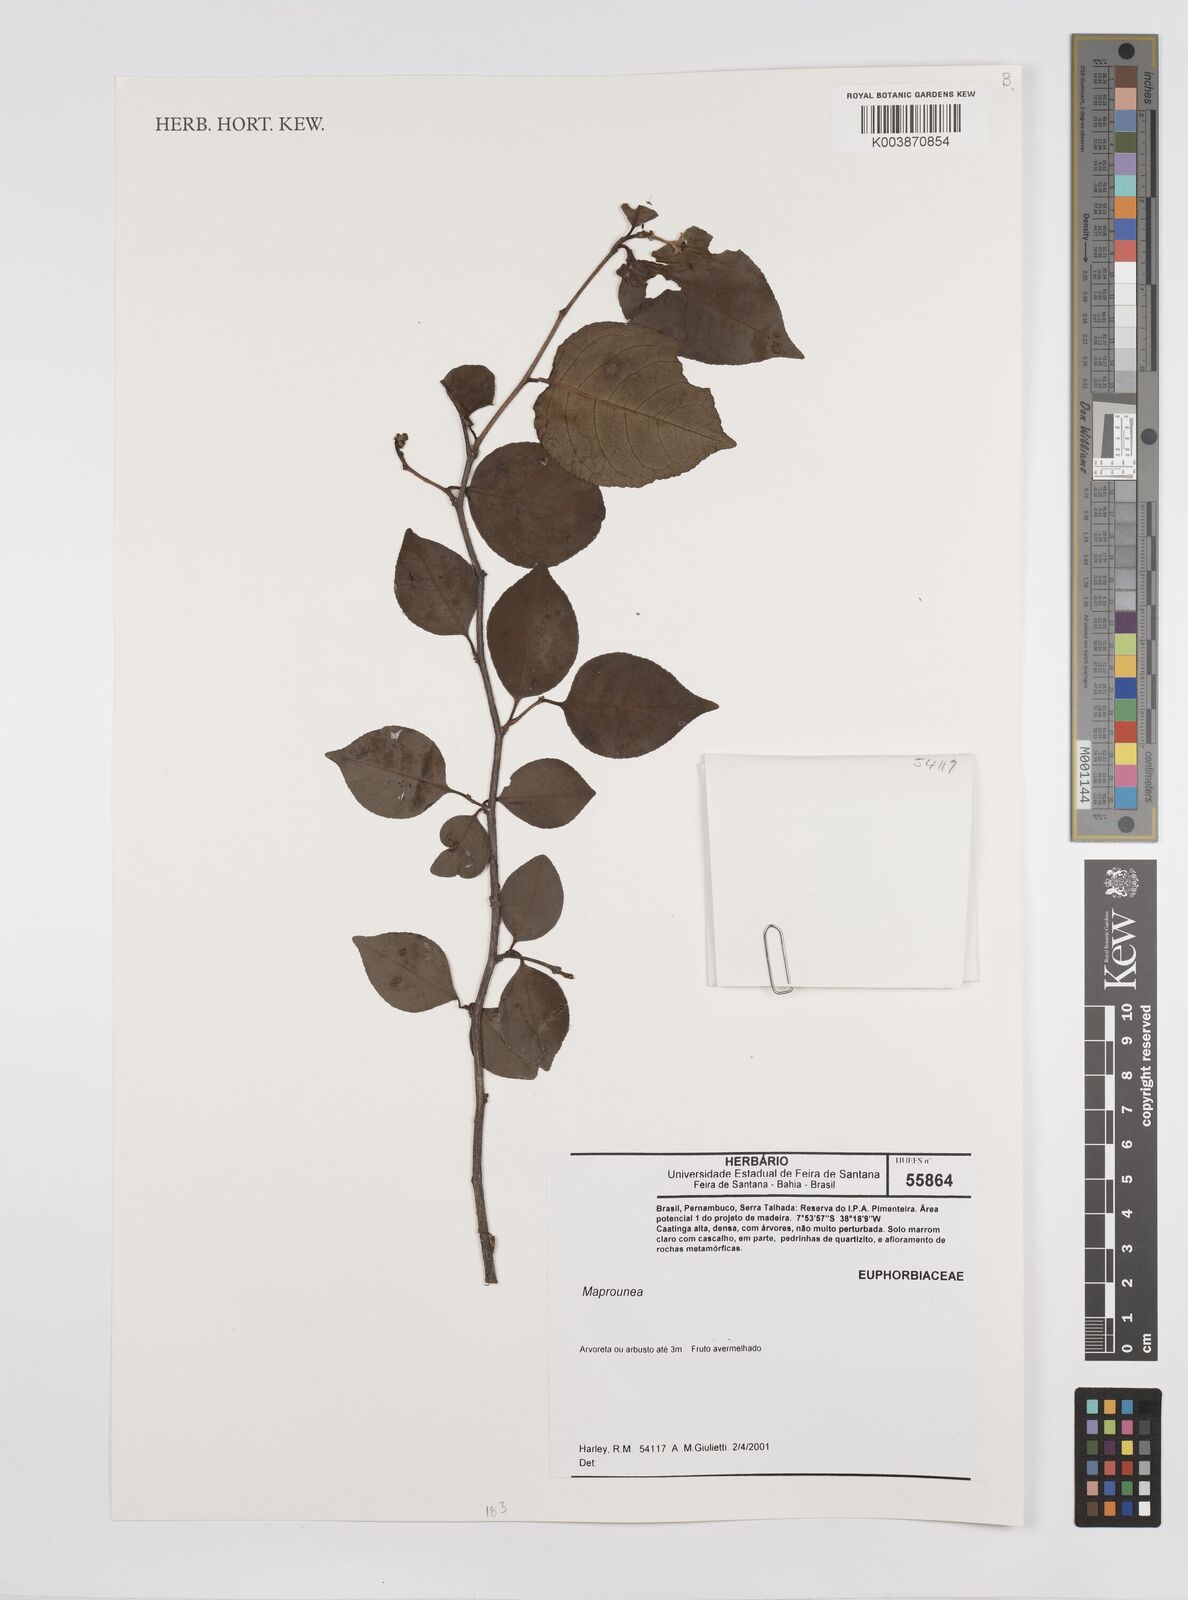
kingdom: Plantae
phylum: Tracheophyta
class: Magnoliopsida
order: Malpighiales
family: Euphorbiaceae
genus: Maprounea
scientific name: Maprounea
